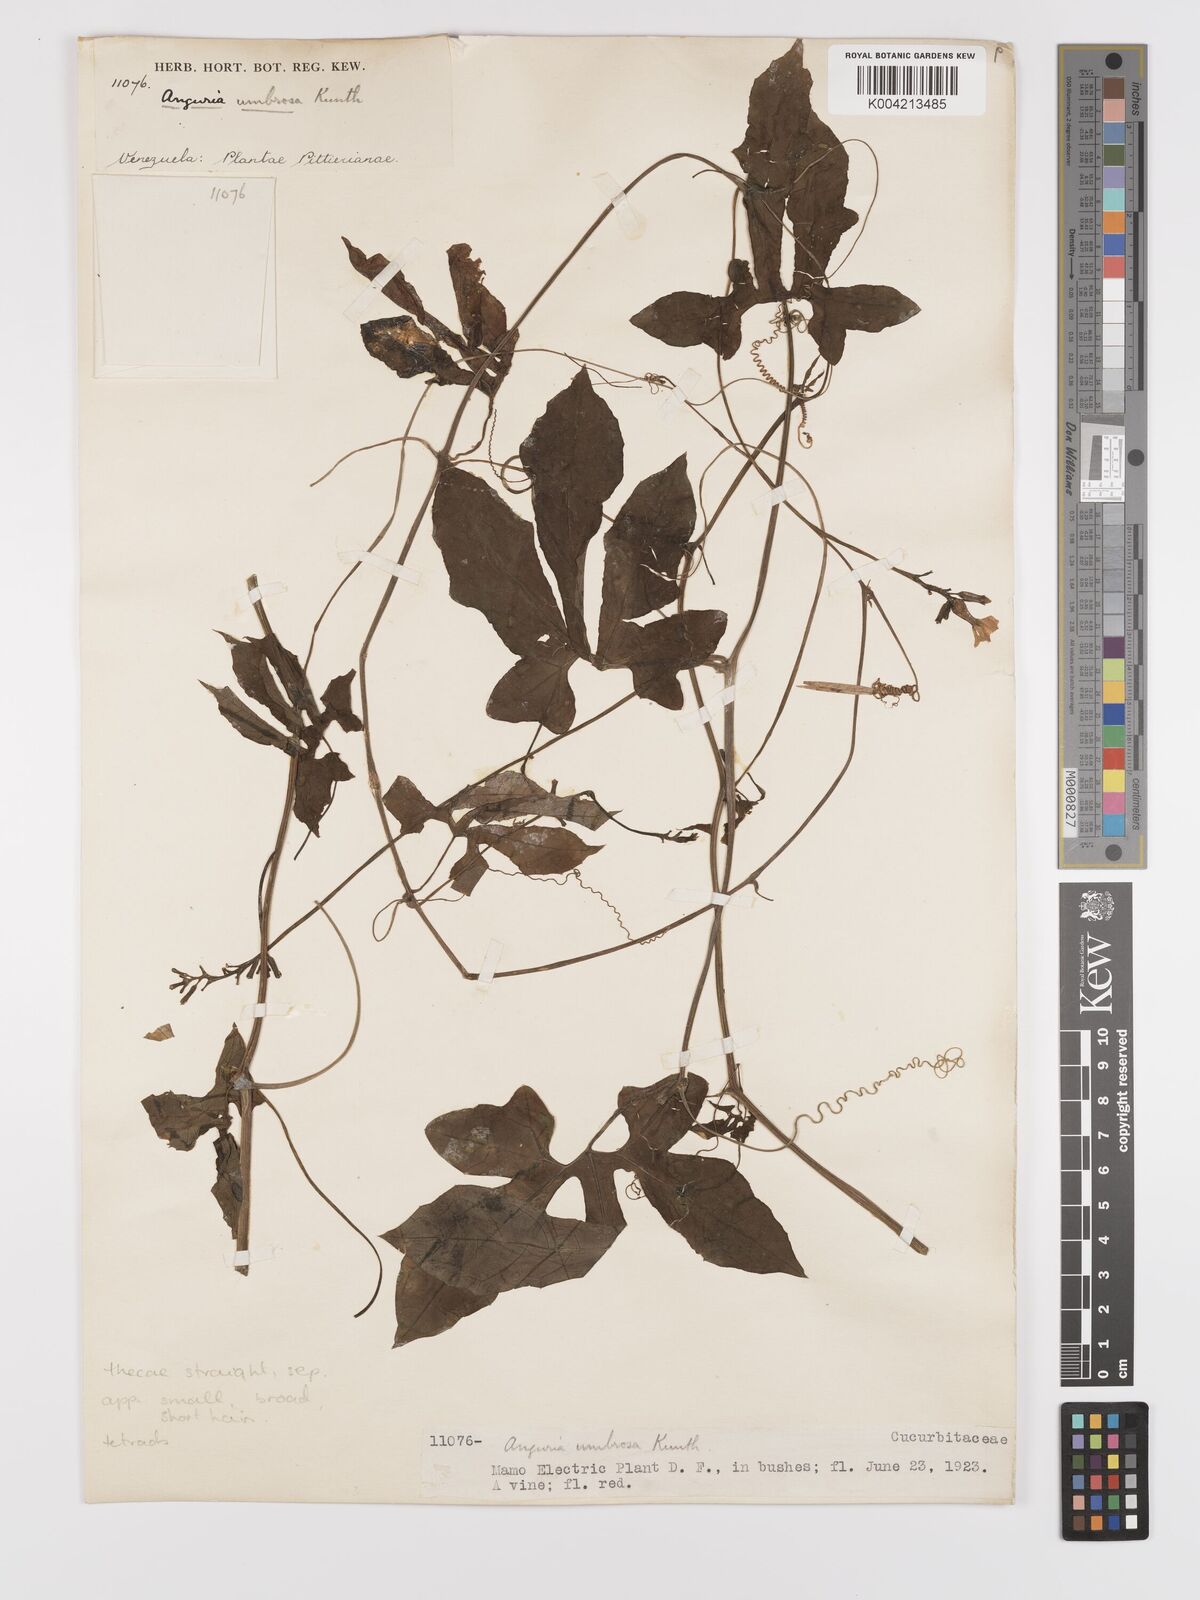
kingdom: Plantae
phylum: Tracheophyta
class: Magnoliopsida
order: Cucurbitales
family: Cucurbitaceae
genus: Psiguria
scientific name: Psiguria umbrosa
